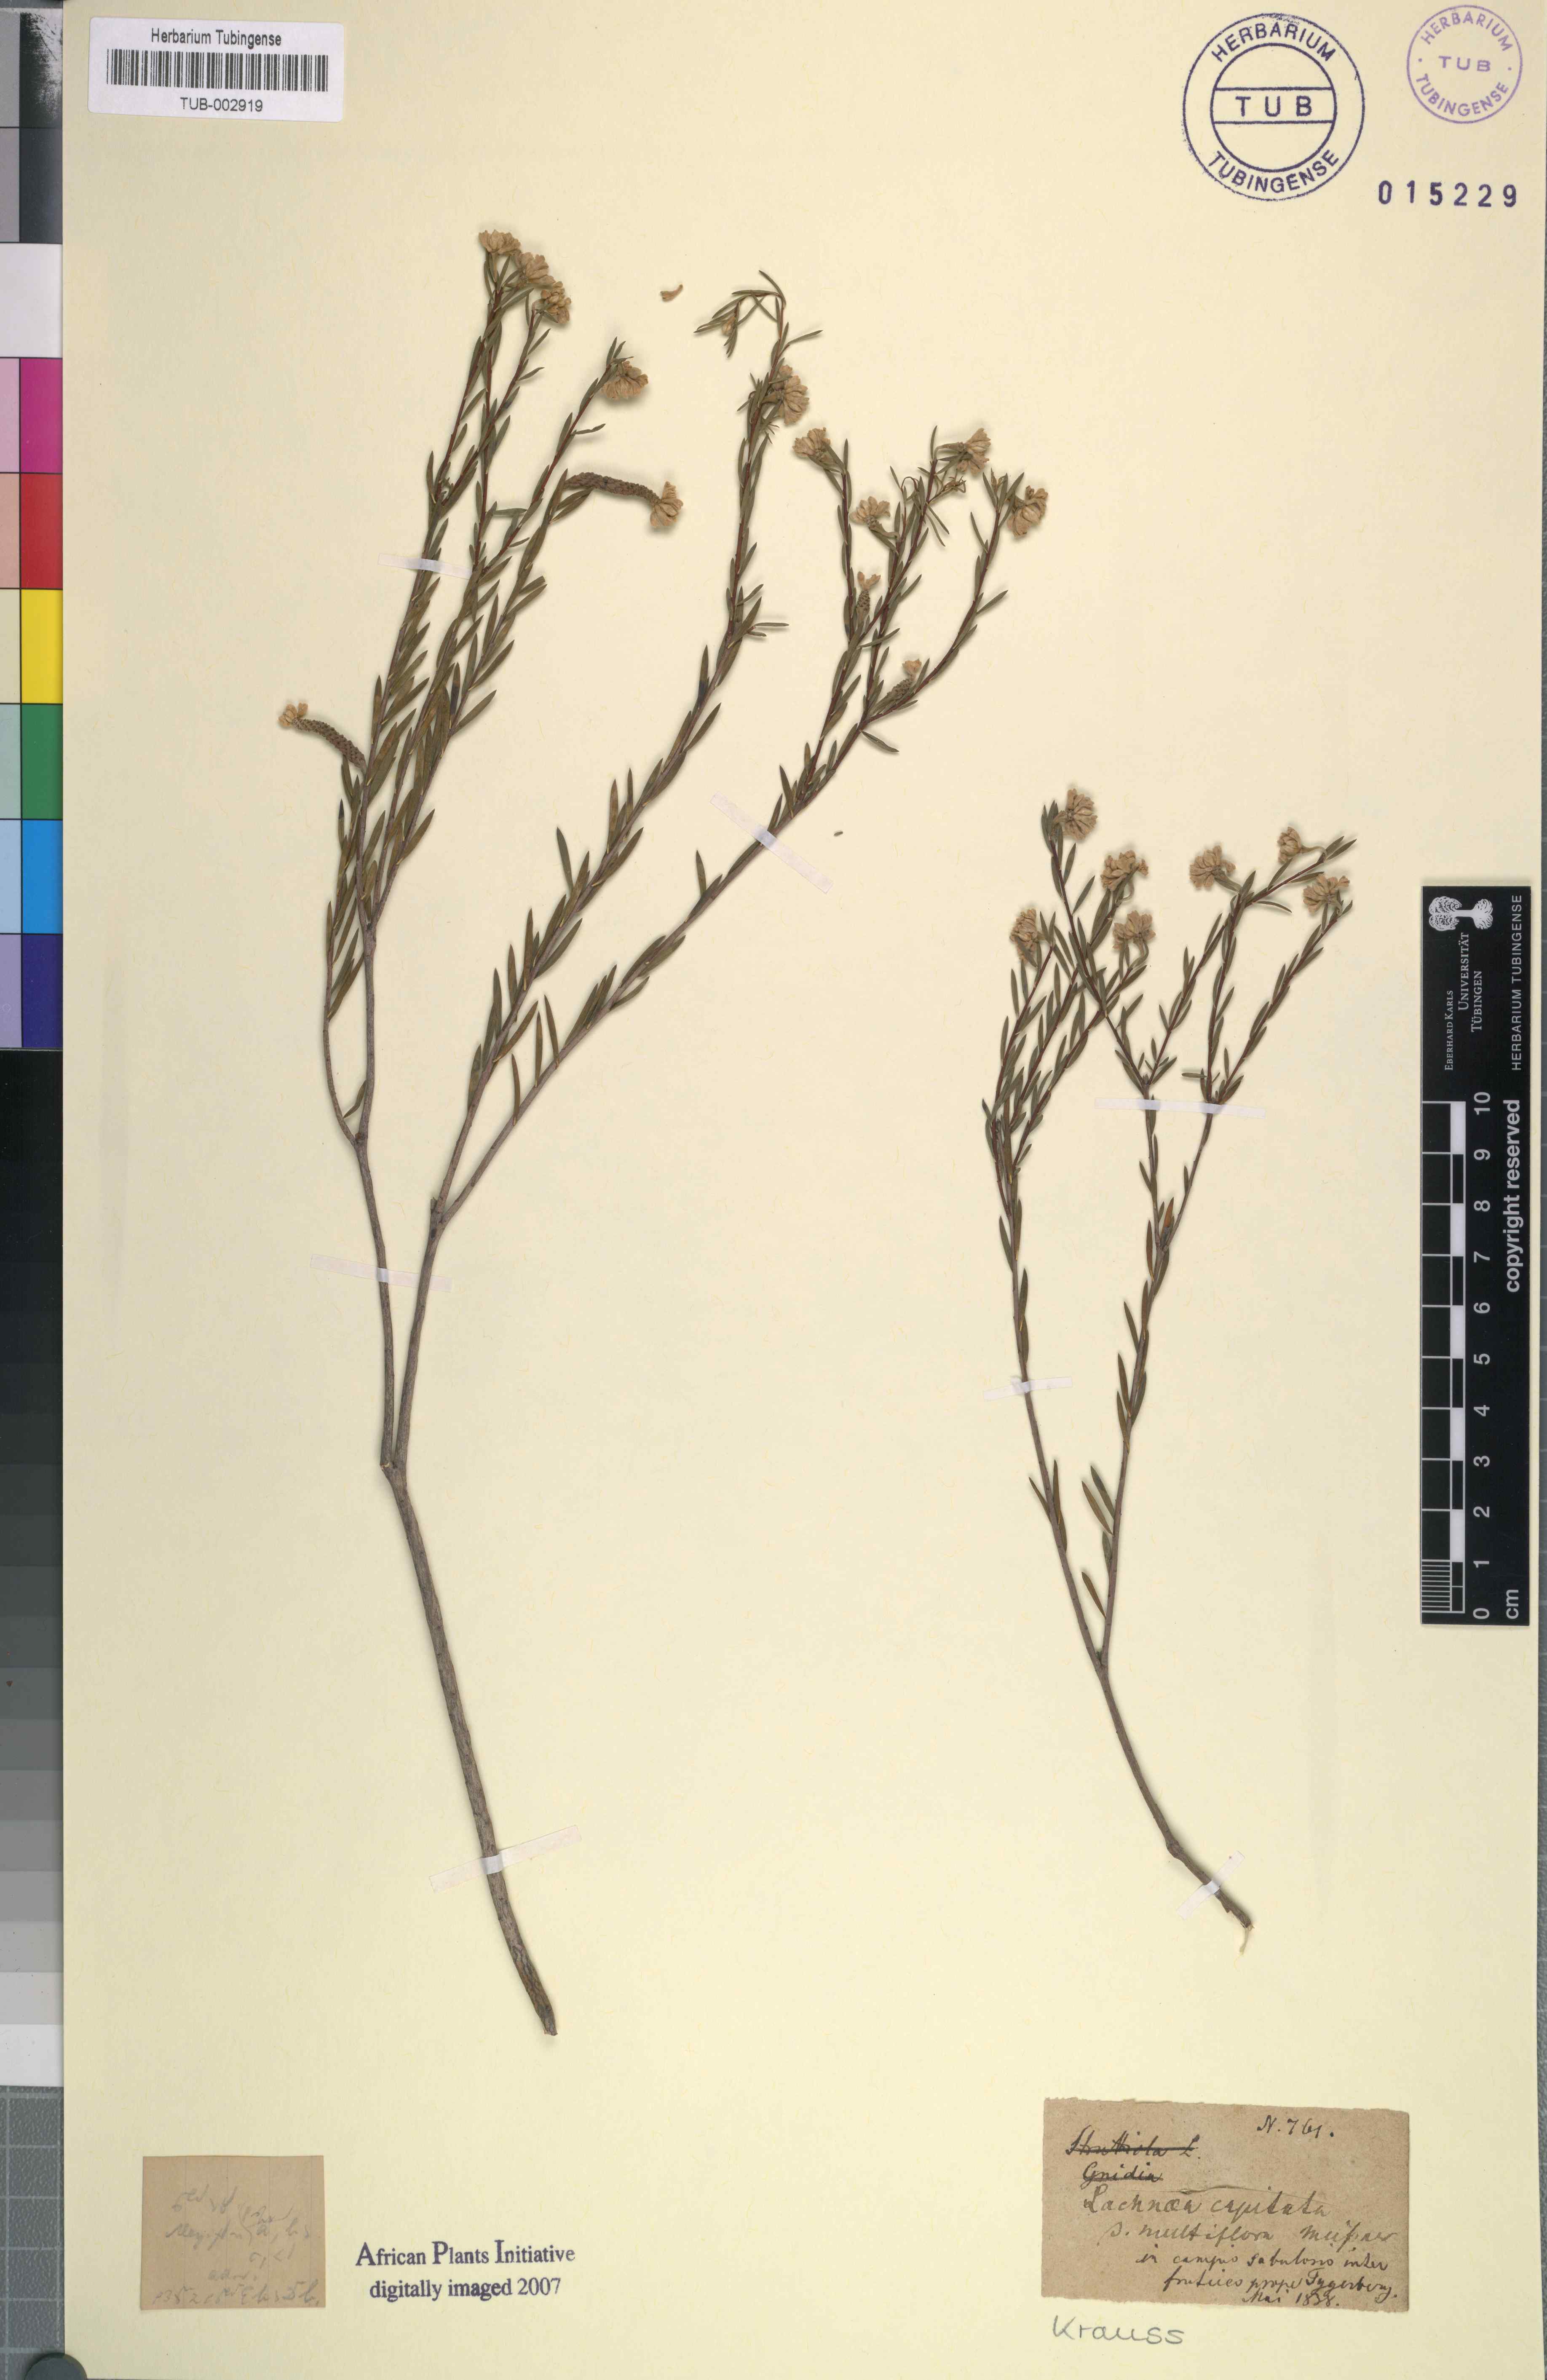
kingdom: Plantae
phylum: Tracheophyta
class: Magnoliopsida
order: Malvales
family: Thymelaeaceae
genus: Lachnaea
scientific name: Lachnaea capitata
